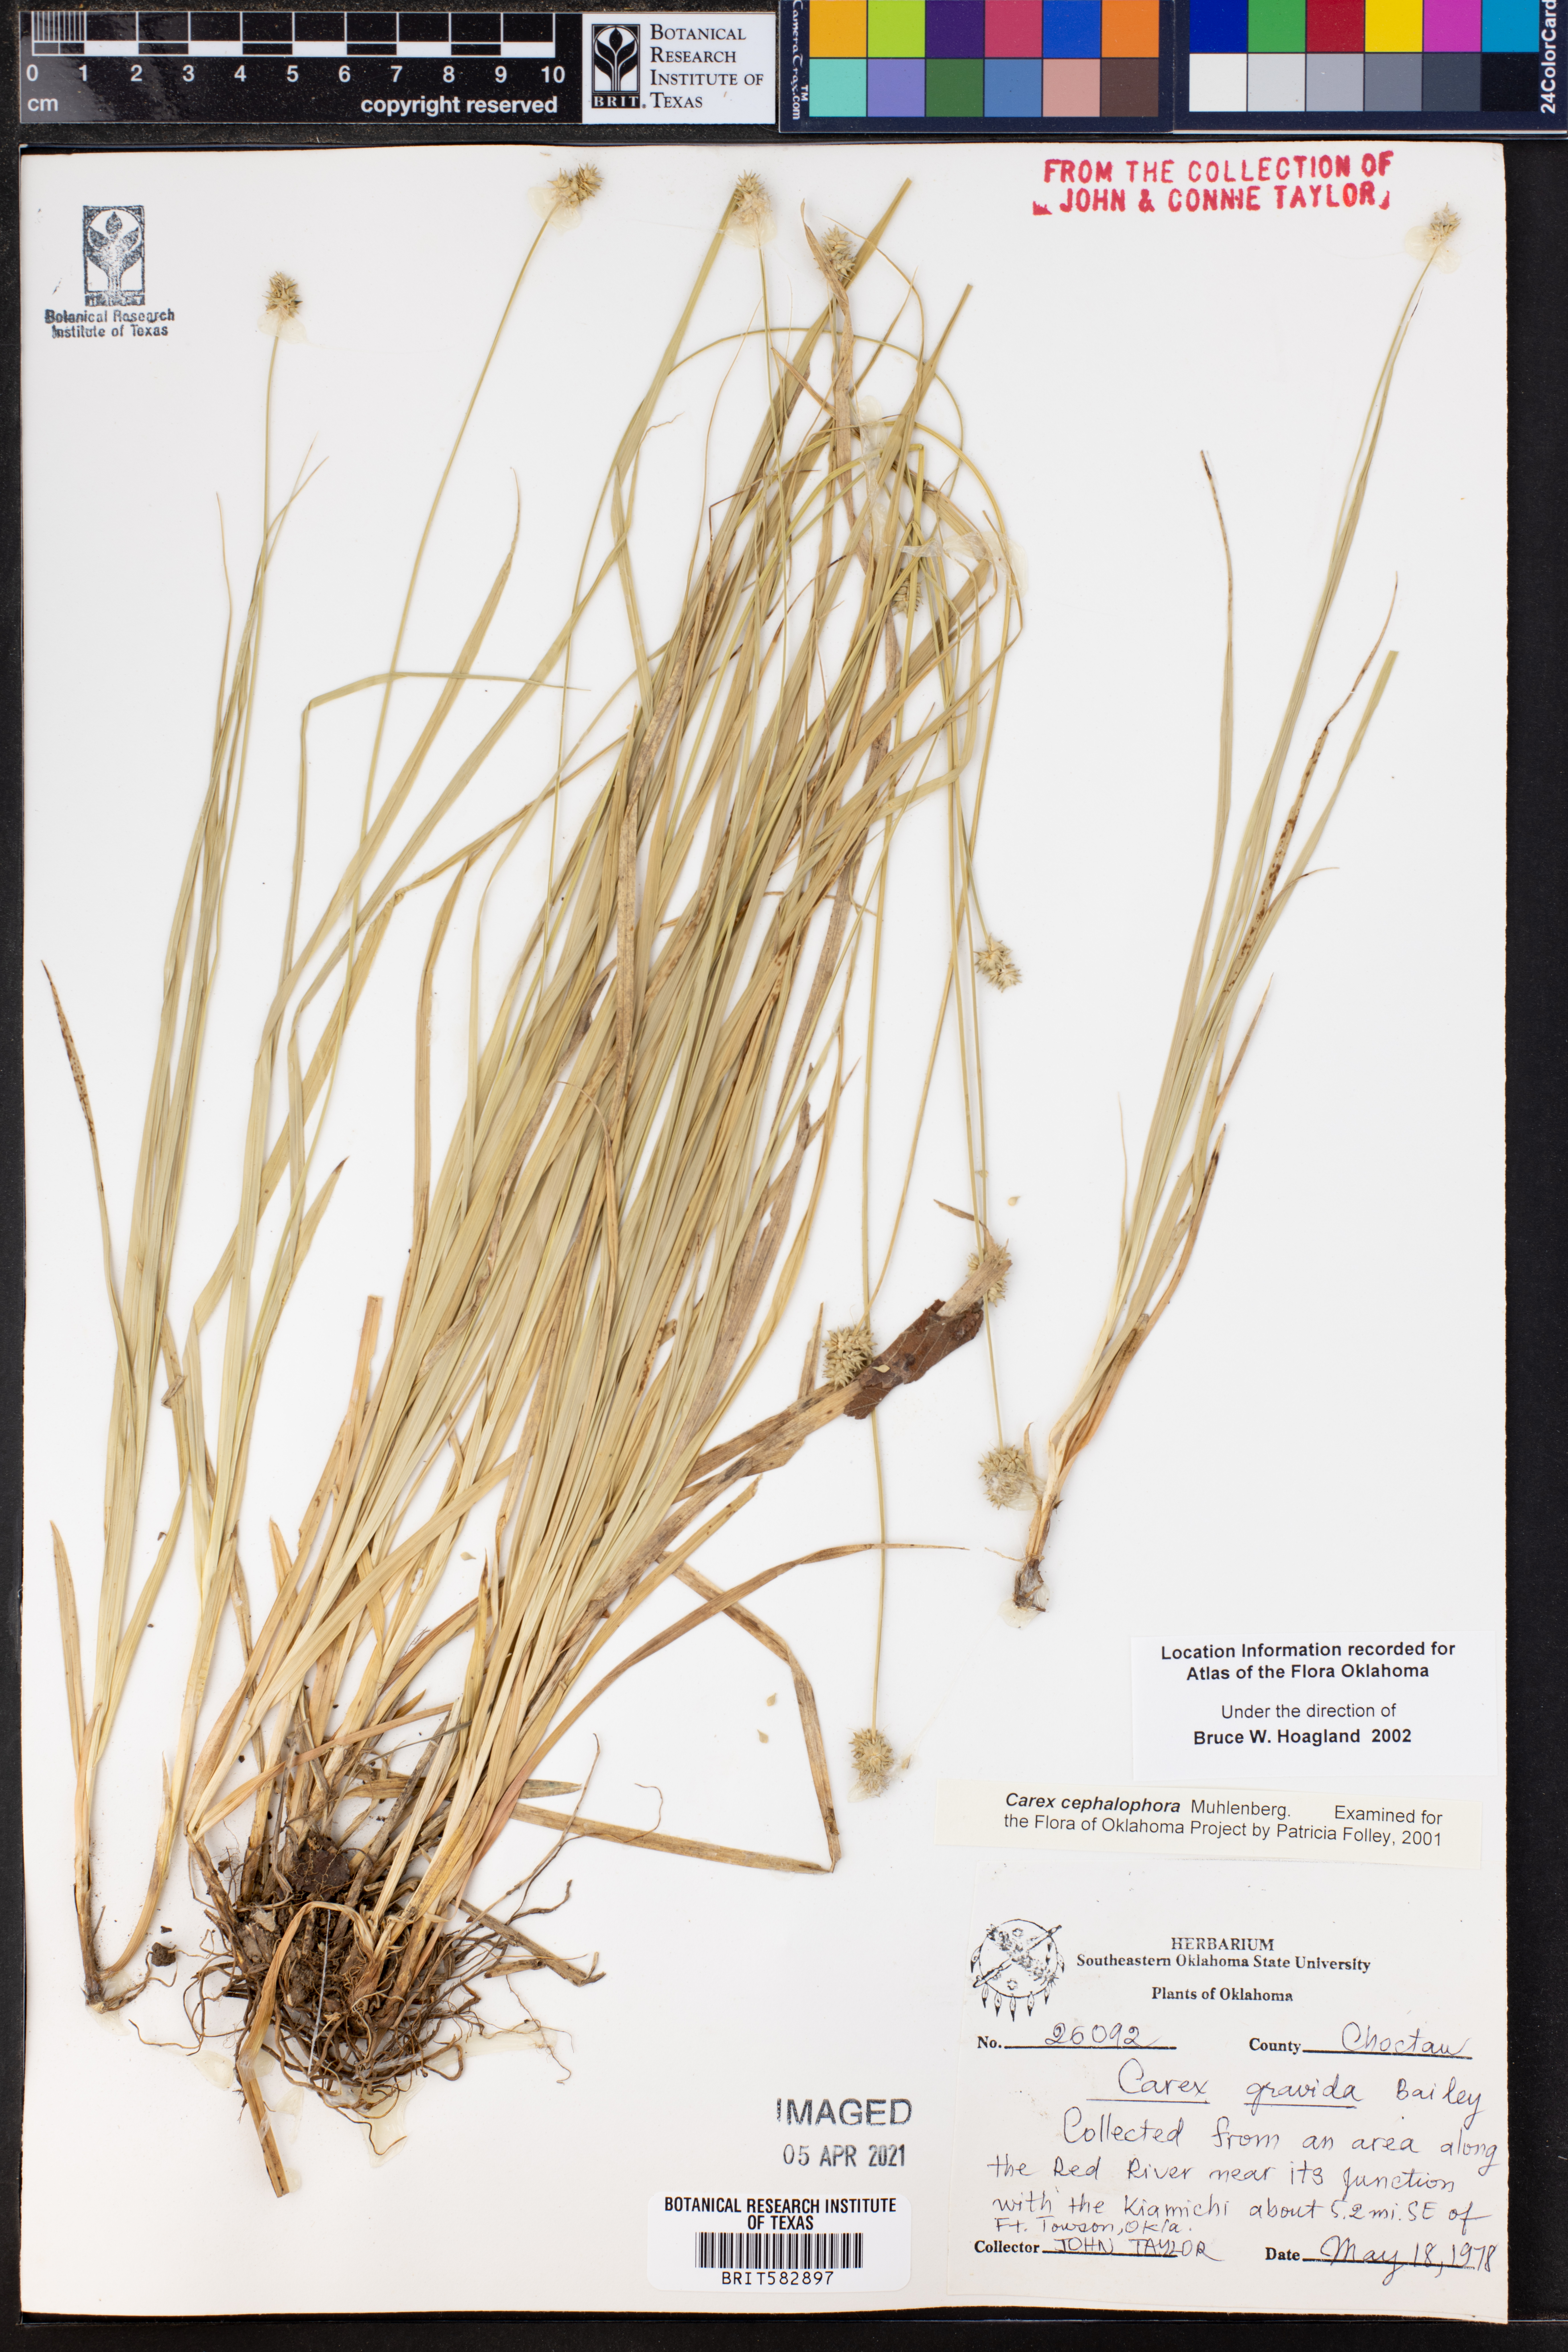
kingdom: Plantae
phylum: Tracheophyta
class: Liliopsida
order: Poales
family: Cyperaceae
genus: Carex
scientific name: Carex cephalophora
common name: Oval-headed sedge
